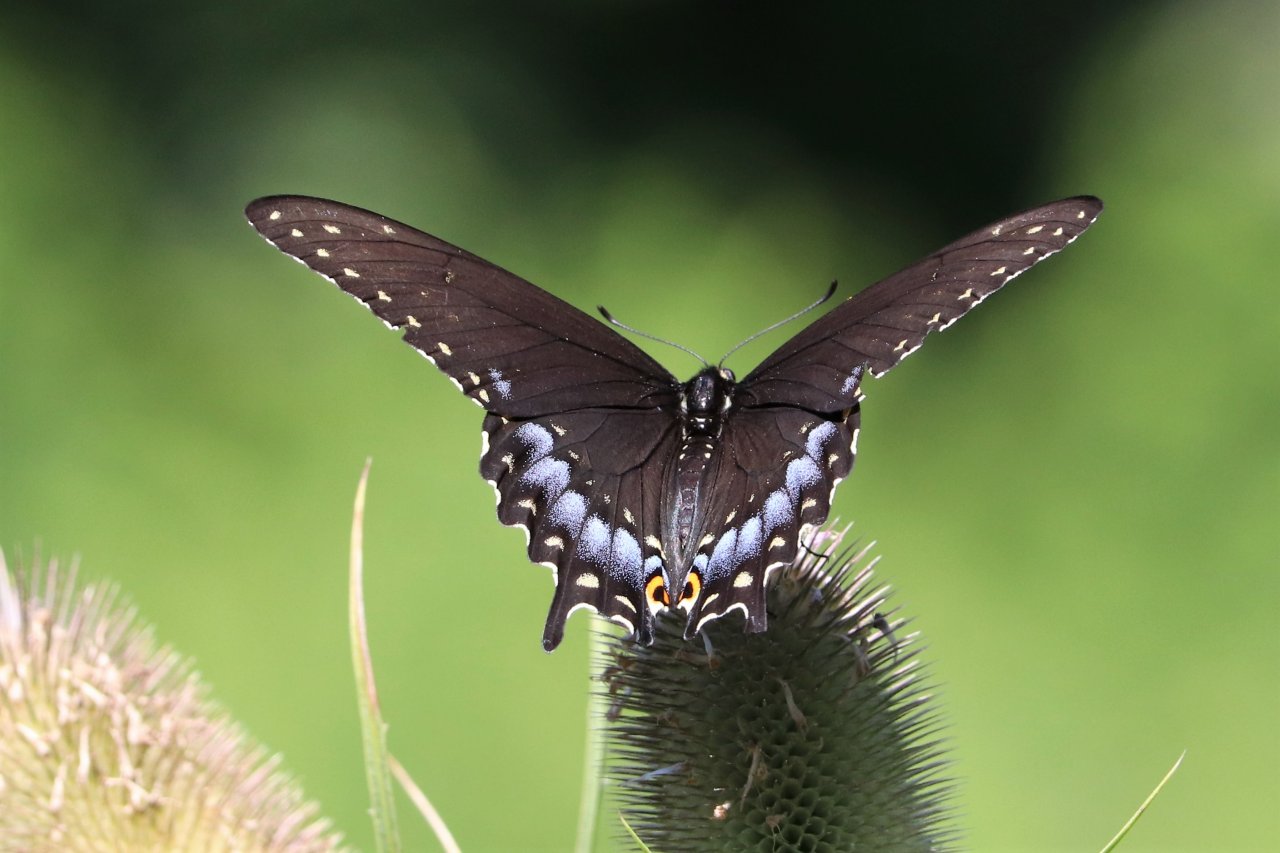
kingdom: Animalia
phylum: Arthropoda
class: Insecta
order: Lepidoptera
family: Papilionidae
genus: Papilio
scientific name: Papilio polyxenes
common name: Black Swallowtail
